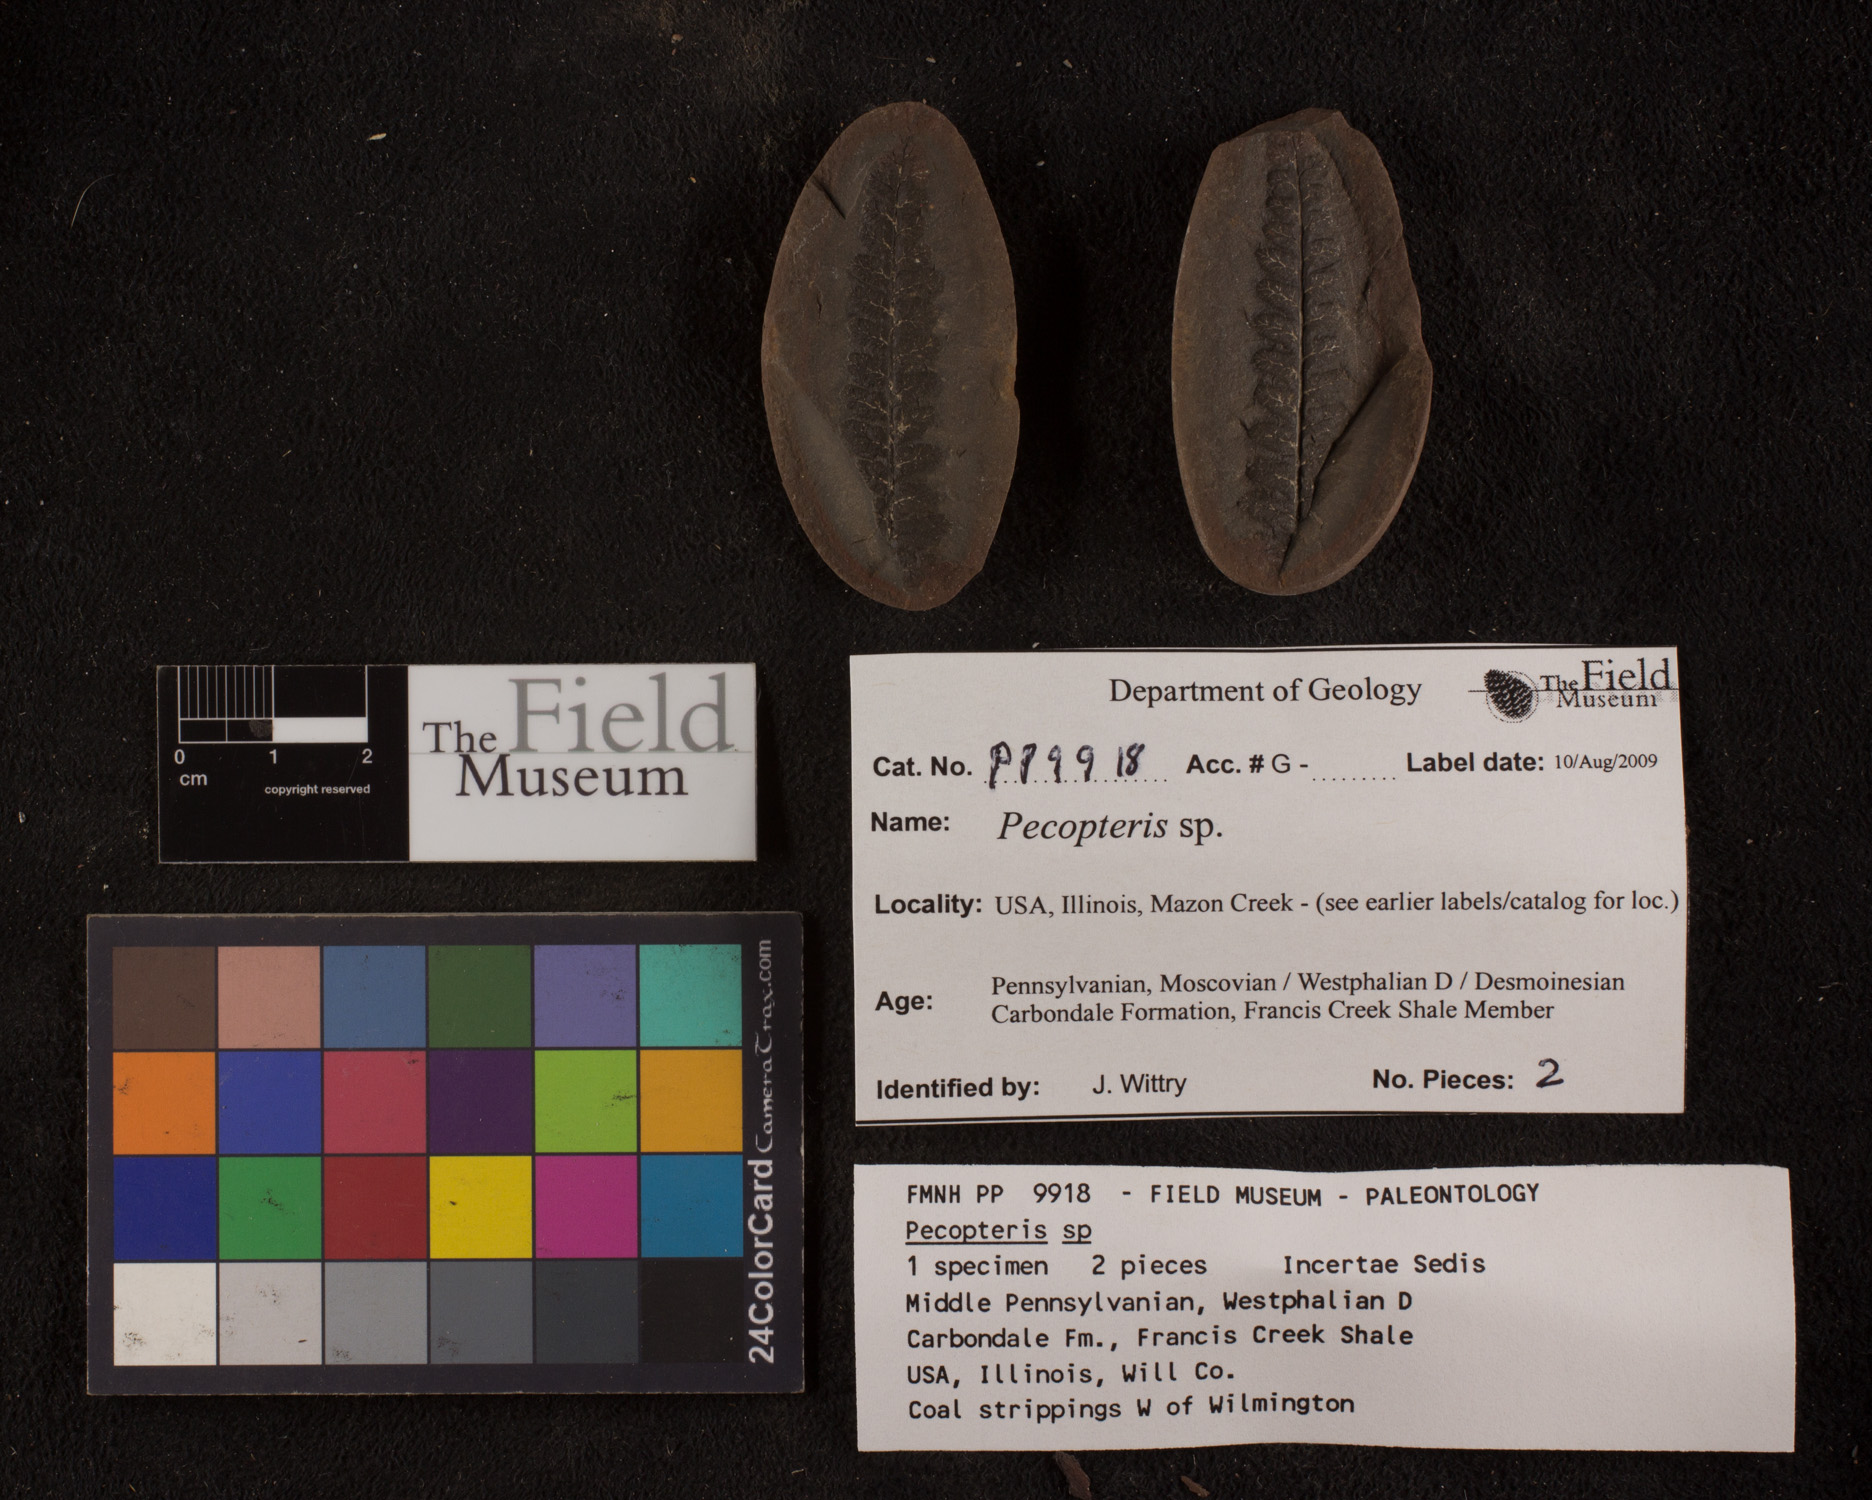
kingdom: Plantae
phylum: Tracheophyta
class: Polypodiopsida
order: Marattiales
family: Asterothecaceae
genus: Pecopteris
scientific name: Pecopteris
